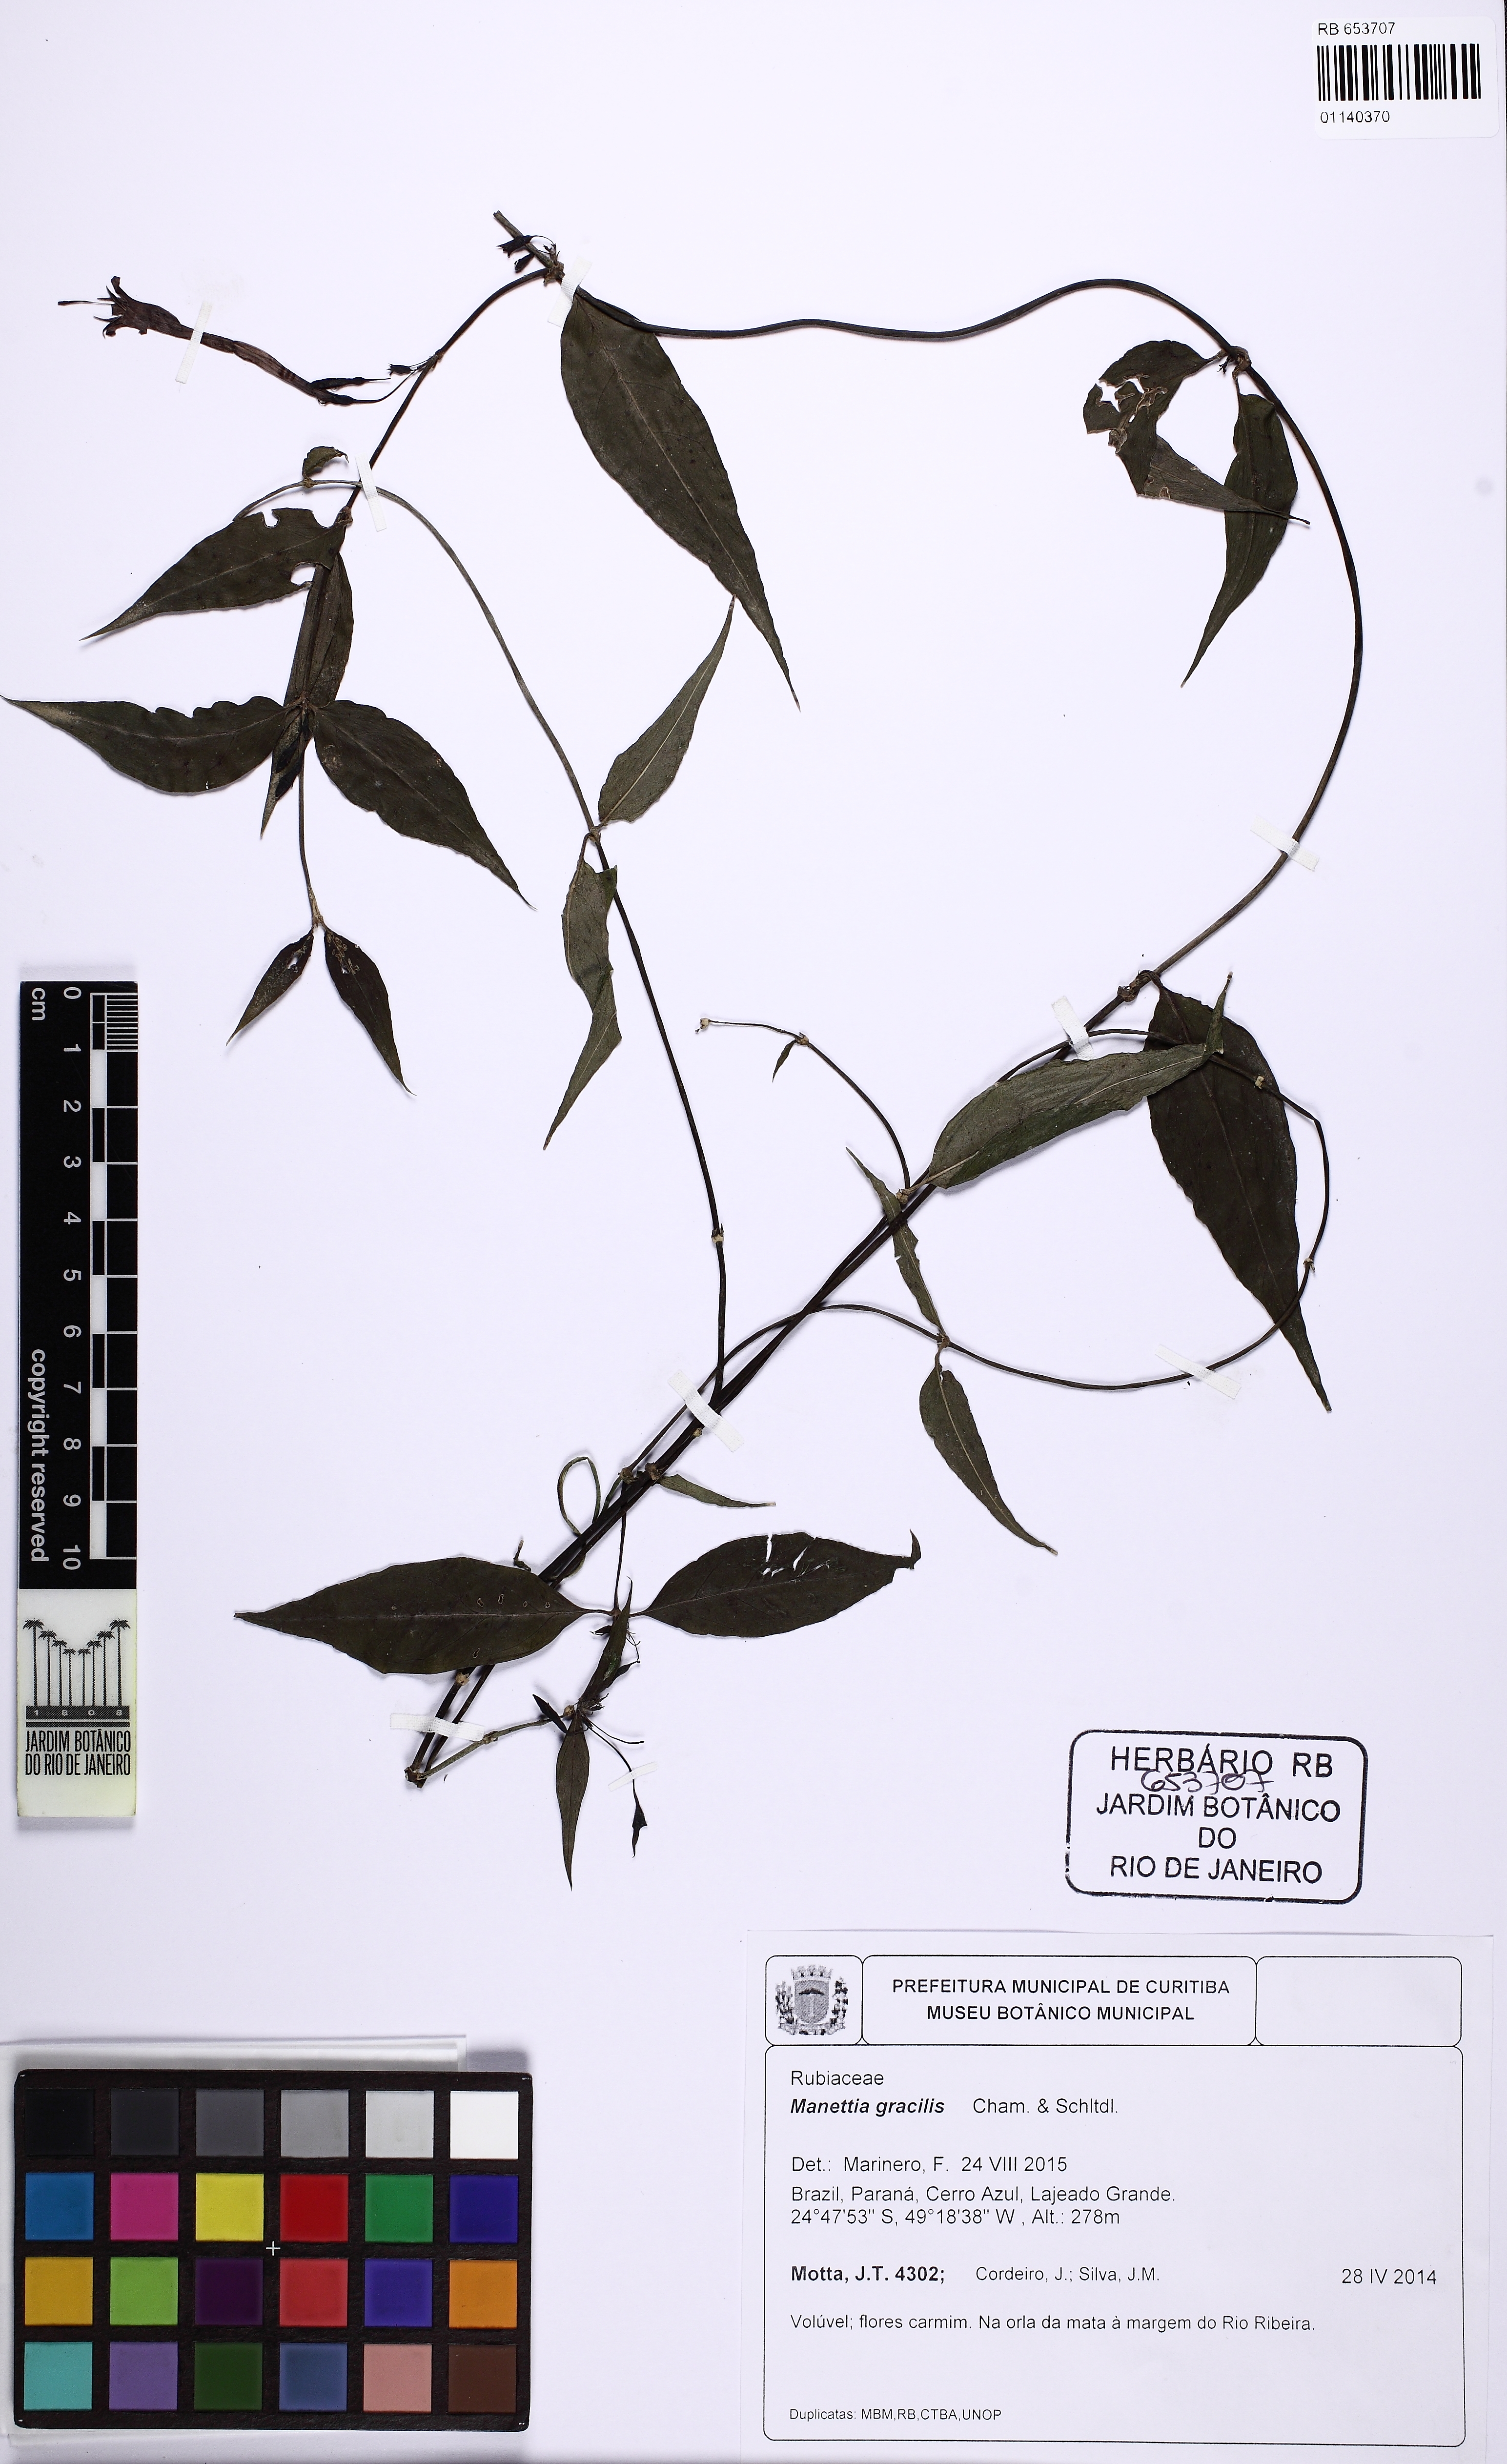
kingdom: Plantae
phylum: Tracheophyta
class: Magnoliopsida
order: Gentianales
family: Rubiaceae
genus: Manettia
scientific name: Manettia gracilis
